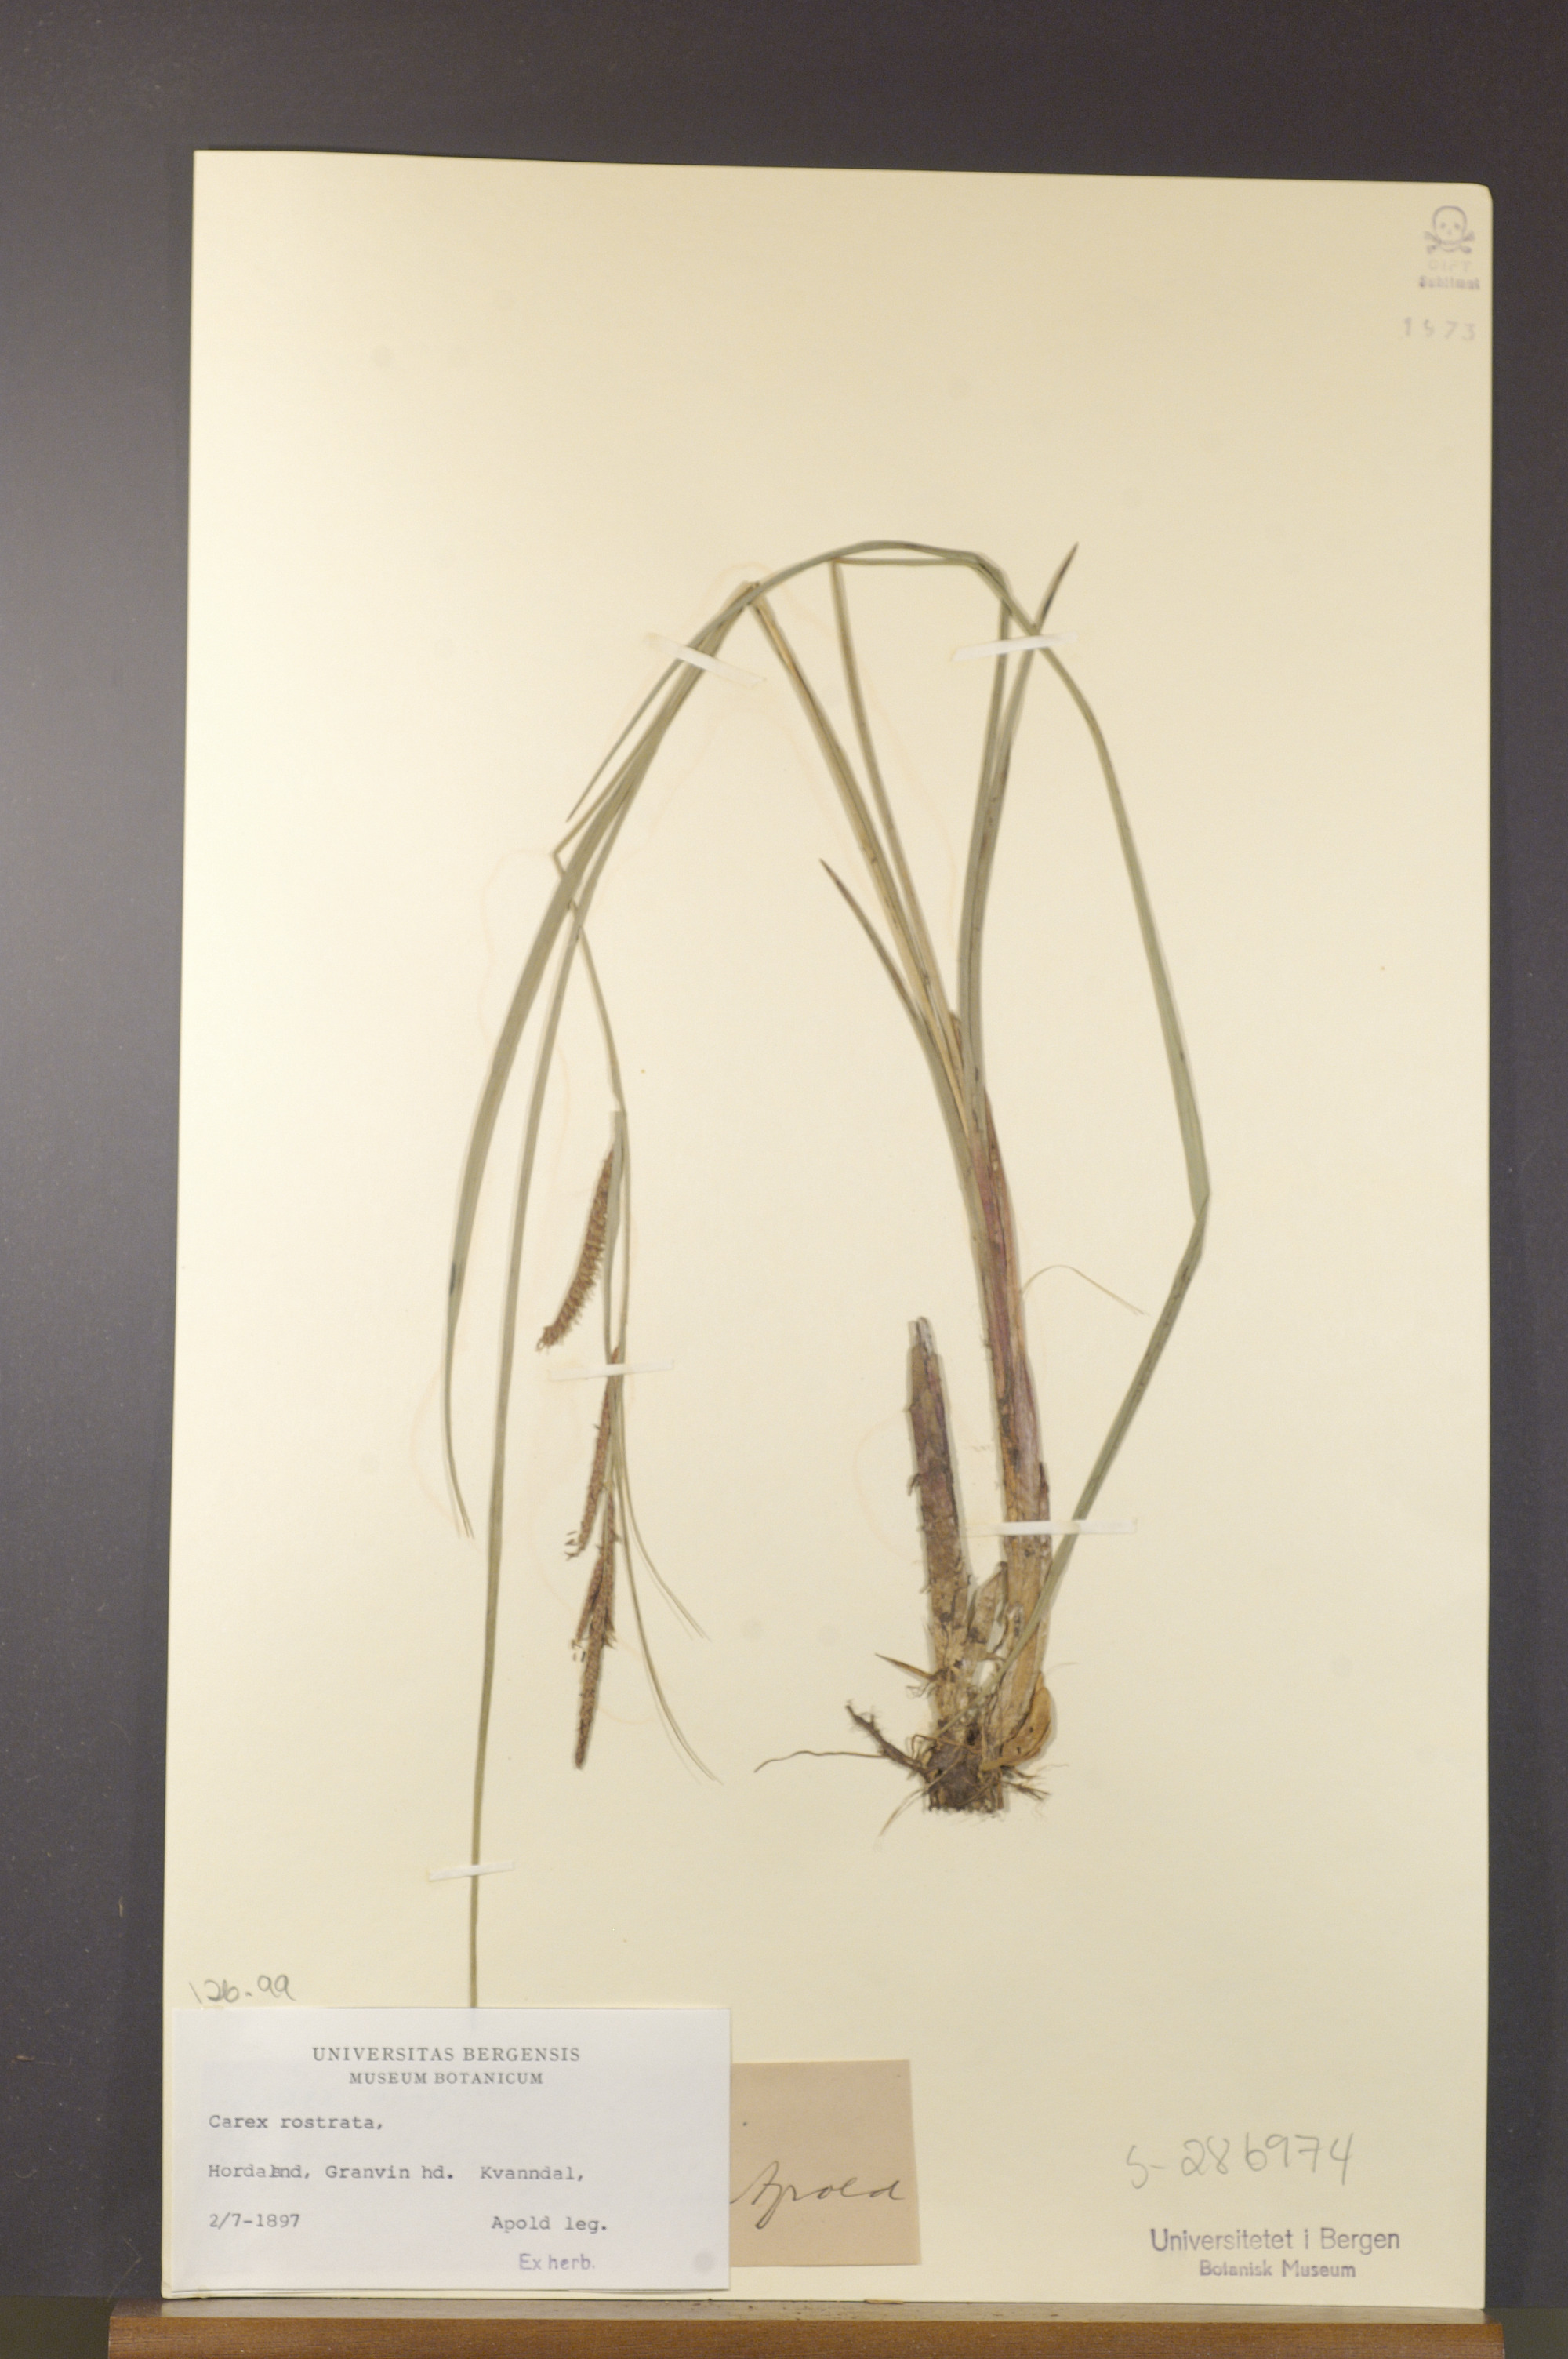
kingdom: Plantae
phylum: Tracheophyta
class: Liliopsida
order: Poales
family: Cyperaceae
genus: Carex
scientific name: Carex rostrata
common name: Bottle sedge
